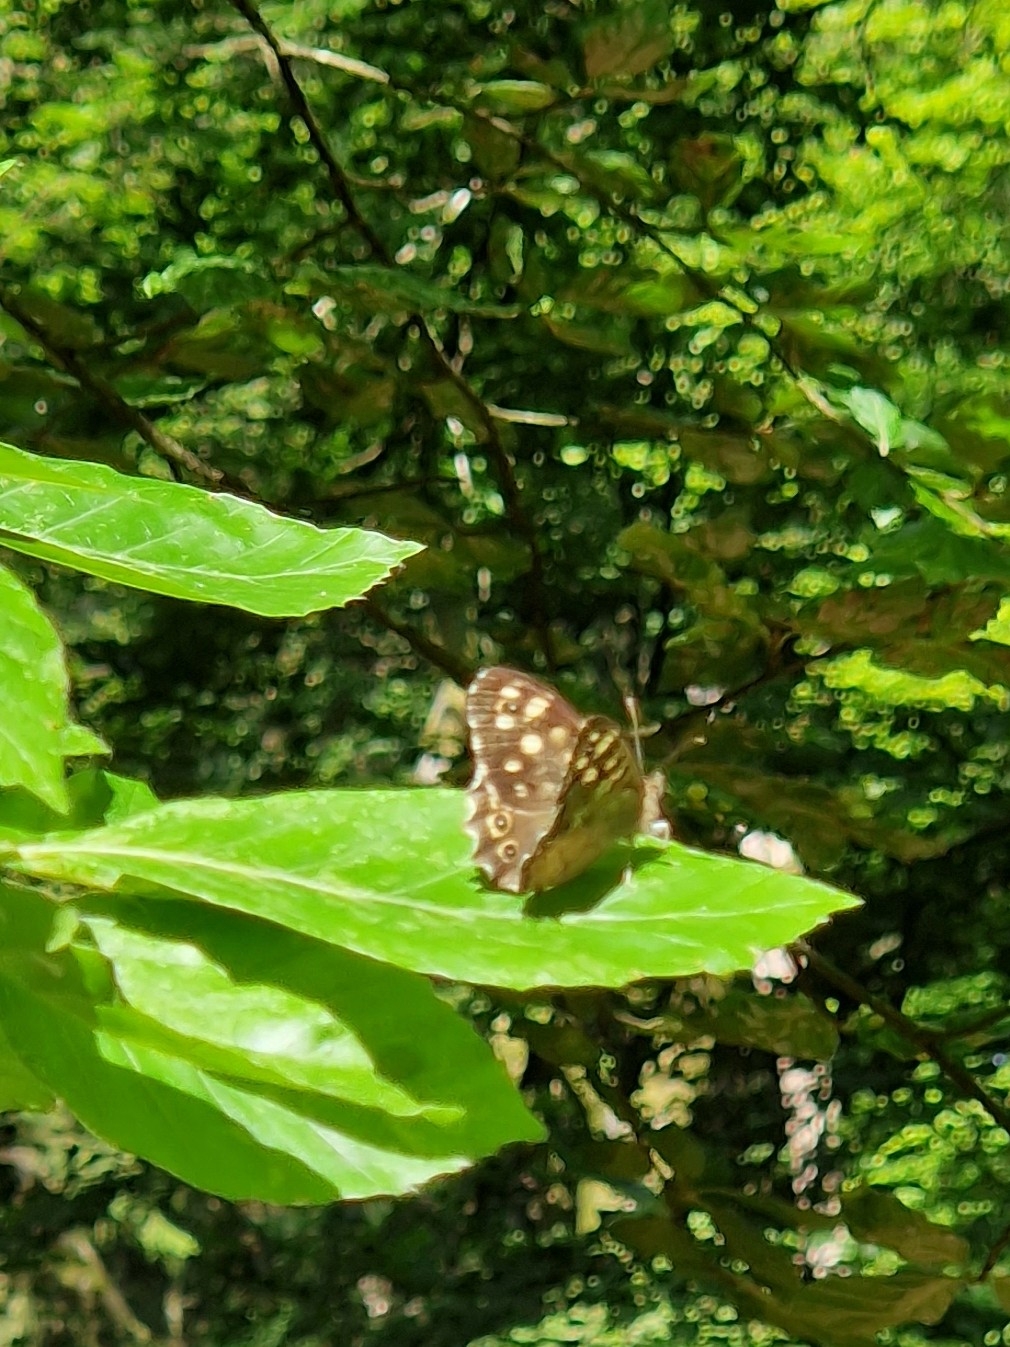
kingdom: Animalia
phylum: Arthropoda
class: Insecta
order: Lepidoptera
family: Nymphalidae
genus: Pararge
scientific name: Pararge aegeria
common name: Skovrandøje
